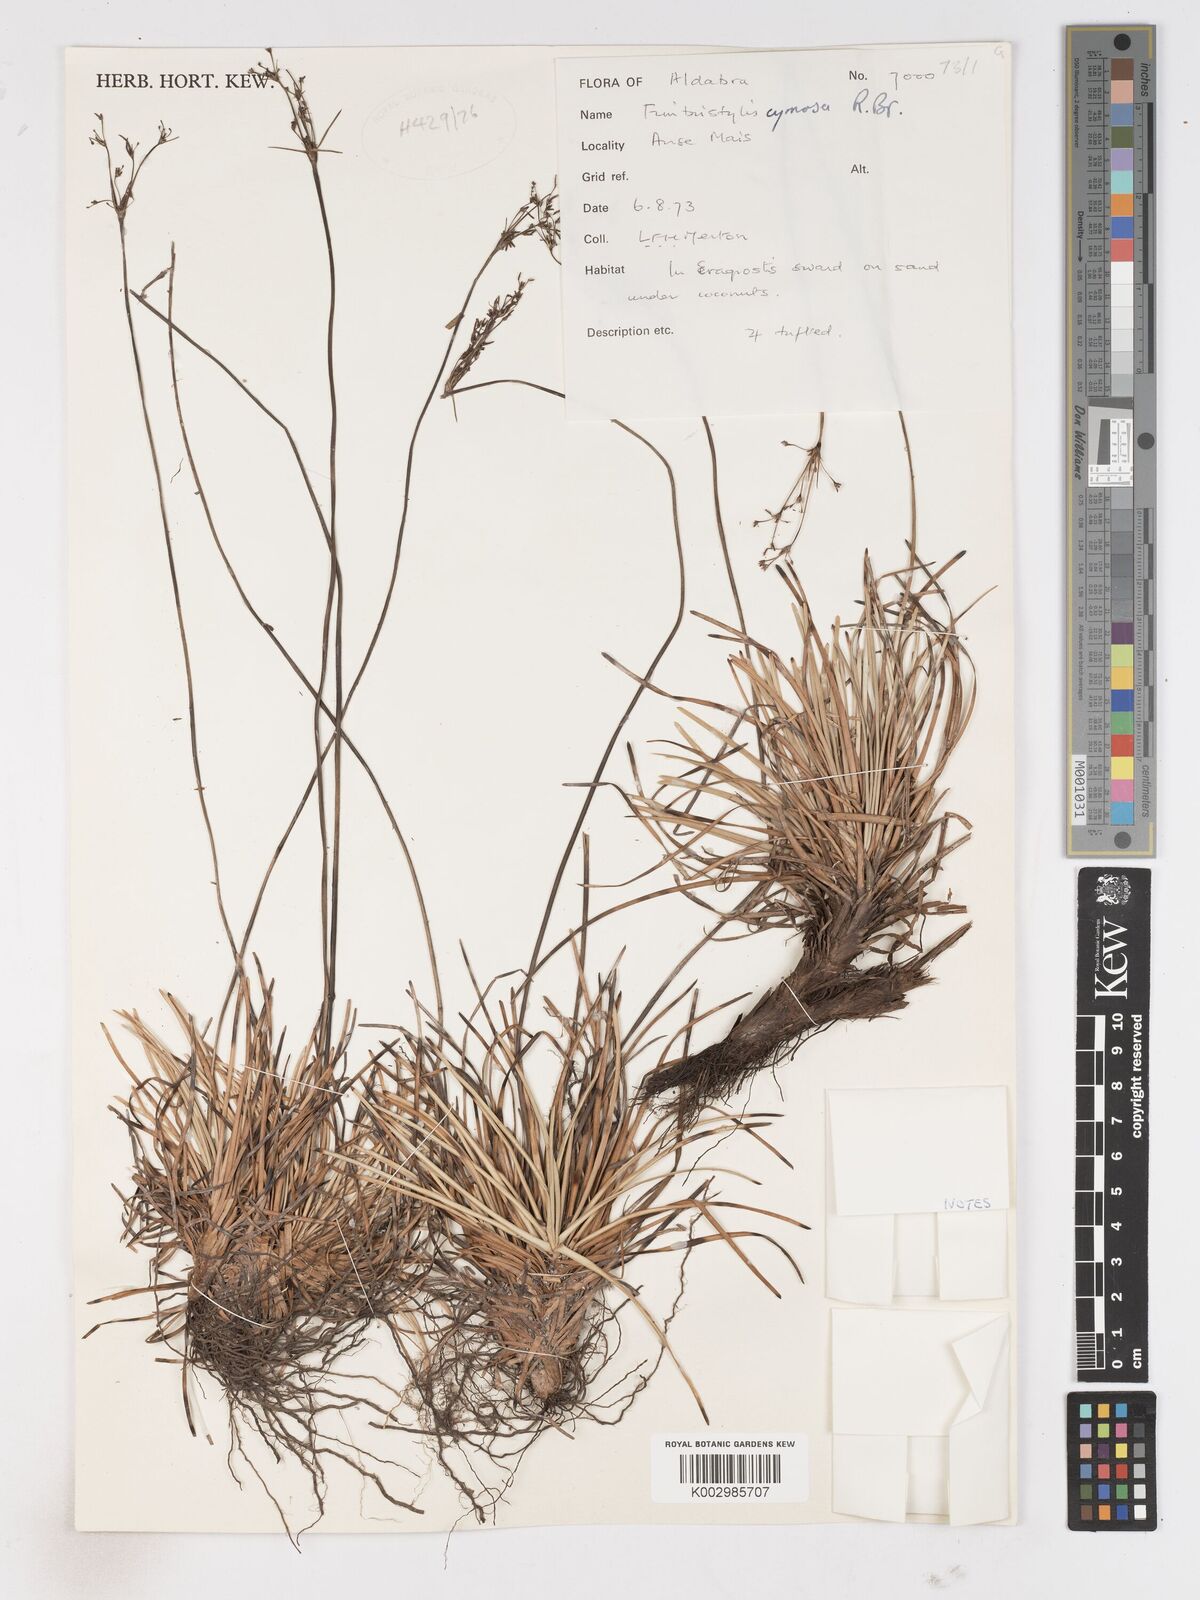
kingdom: Plantae
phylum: Tracheophyta
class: Liliopsida
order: Poales
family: Cyperaceae
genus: Fimbristylis
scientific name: Fimbristylis cymosa
